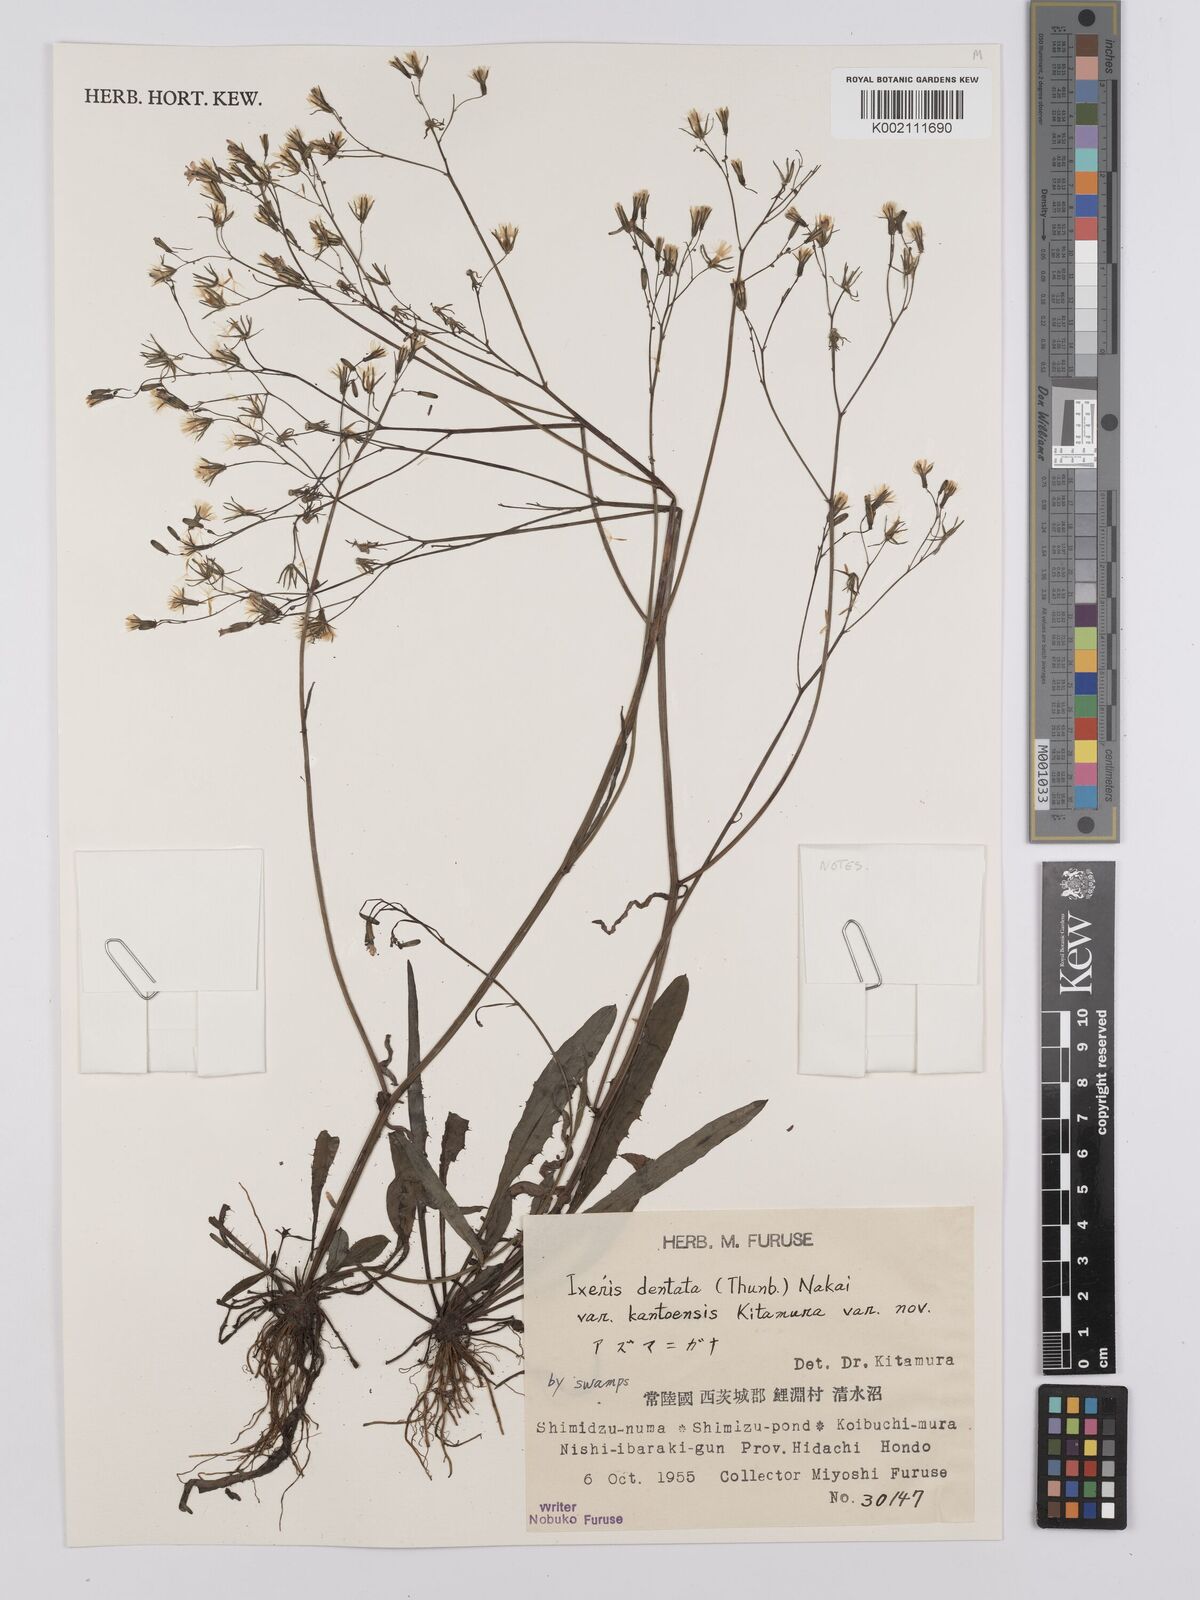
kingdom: Plantae
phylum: Tracheophyta
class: Magnoliopsida
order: Asterales
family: Asteraceae
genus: Ixeridium
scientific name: Ixeridium
